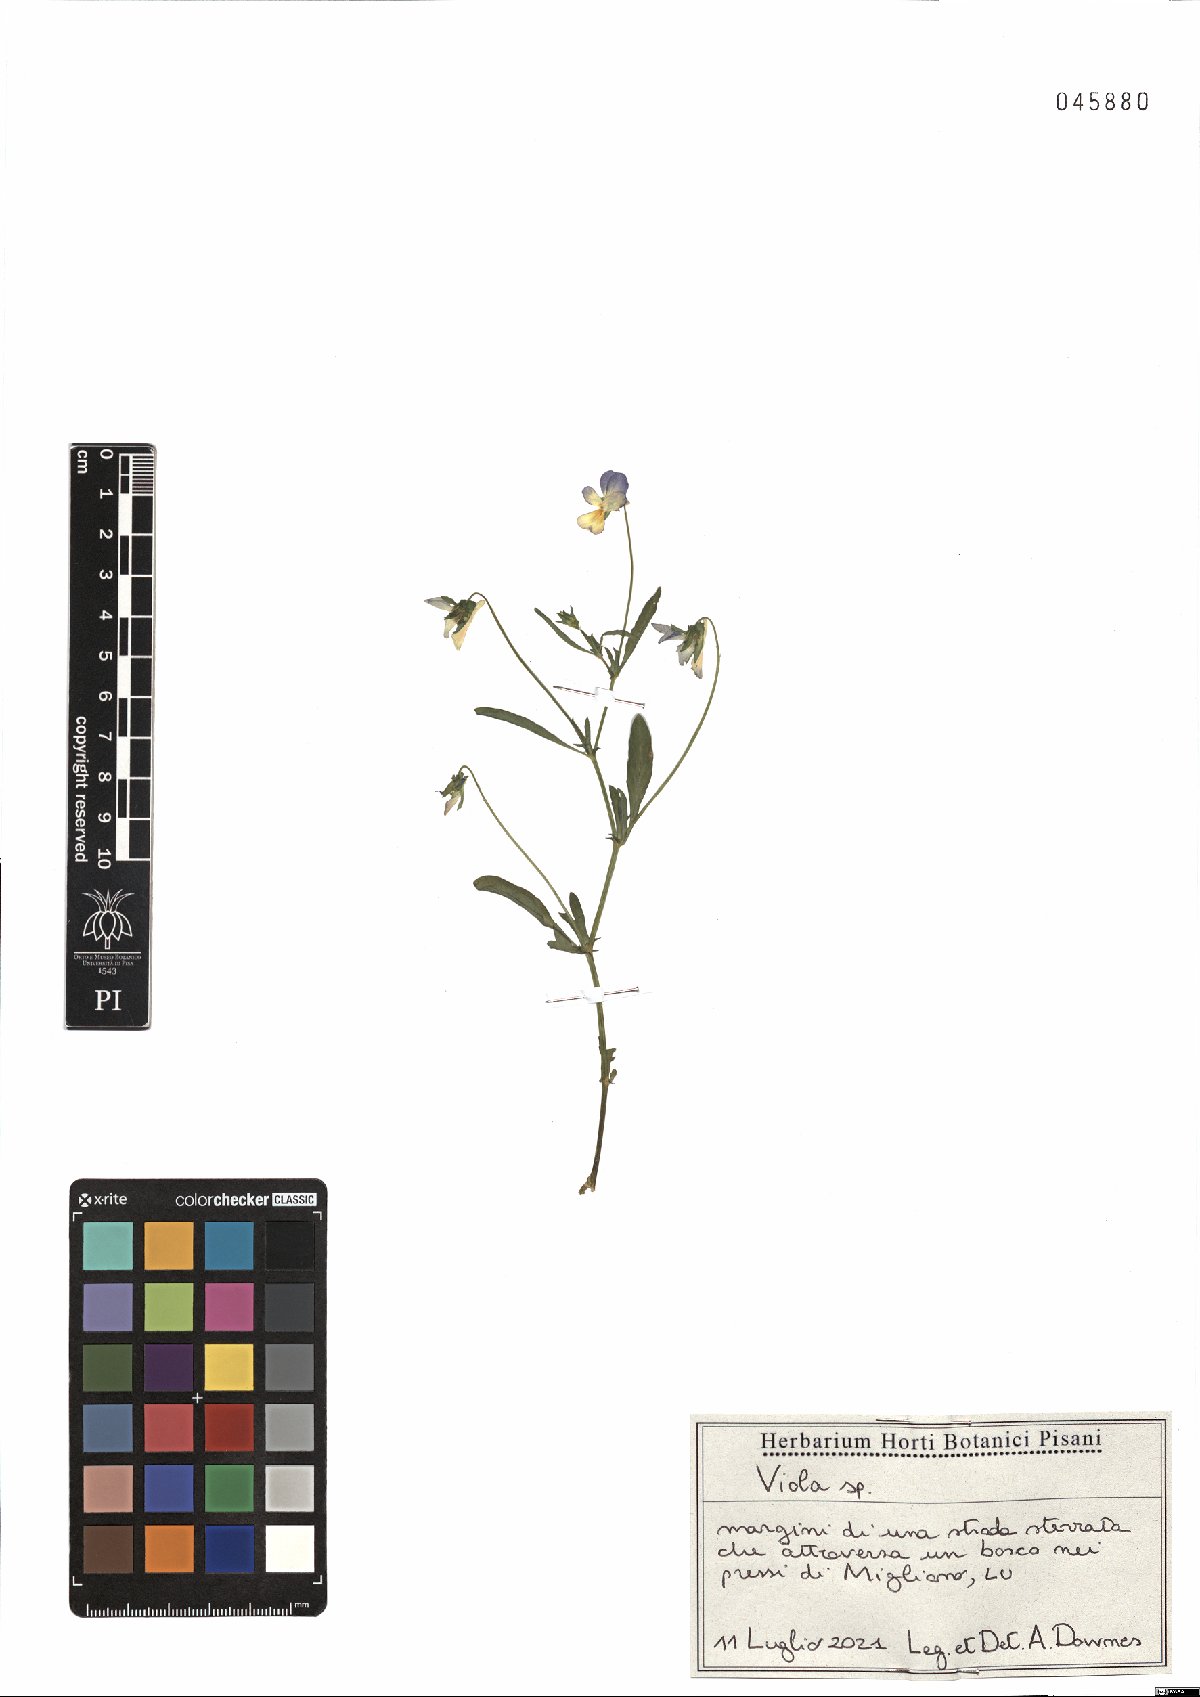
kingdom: Plantae
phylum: Tracheophyta
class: Magnoliopsida
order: Malpighiales
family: Violaceae
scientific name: Violaceae
